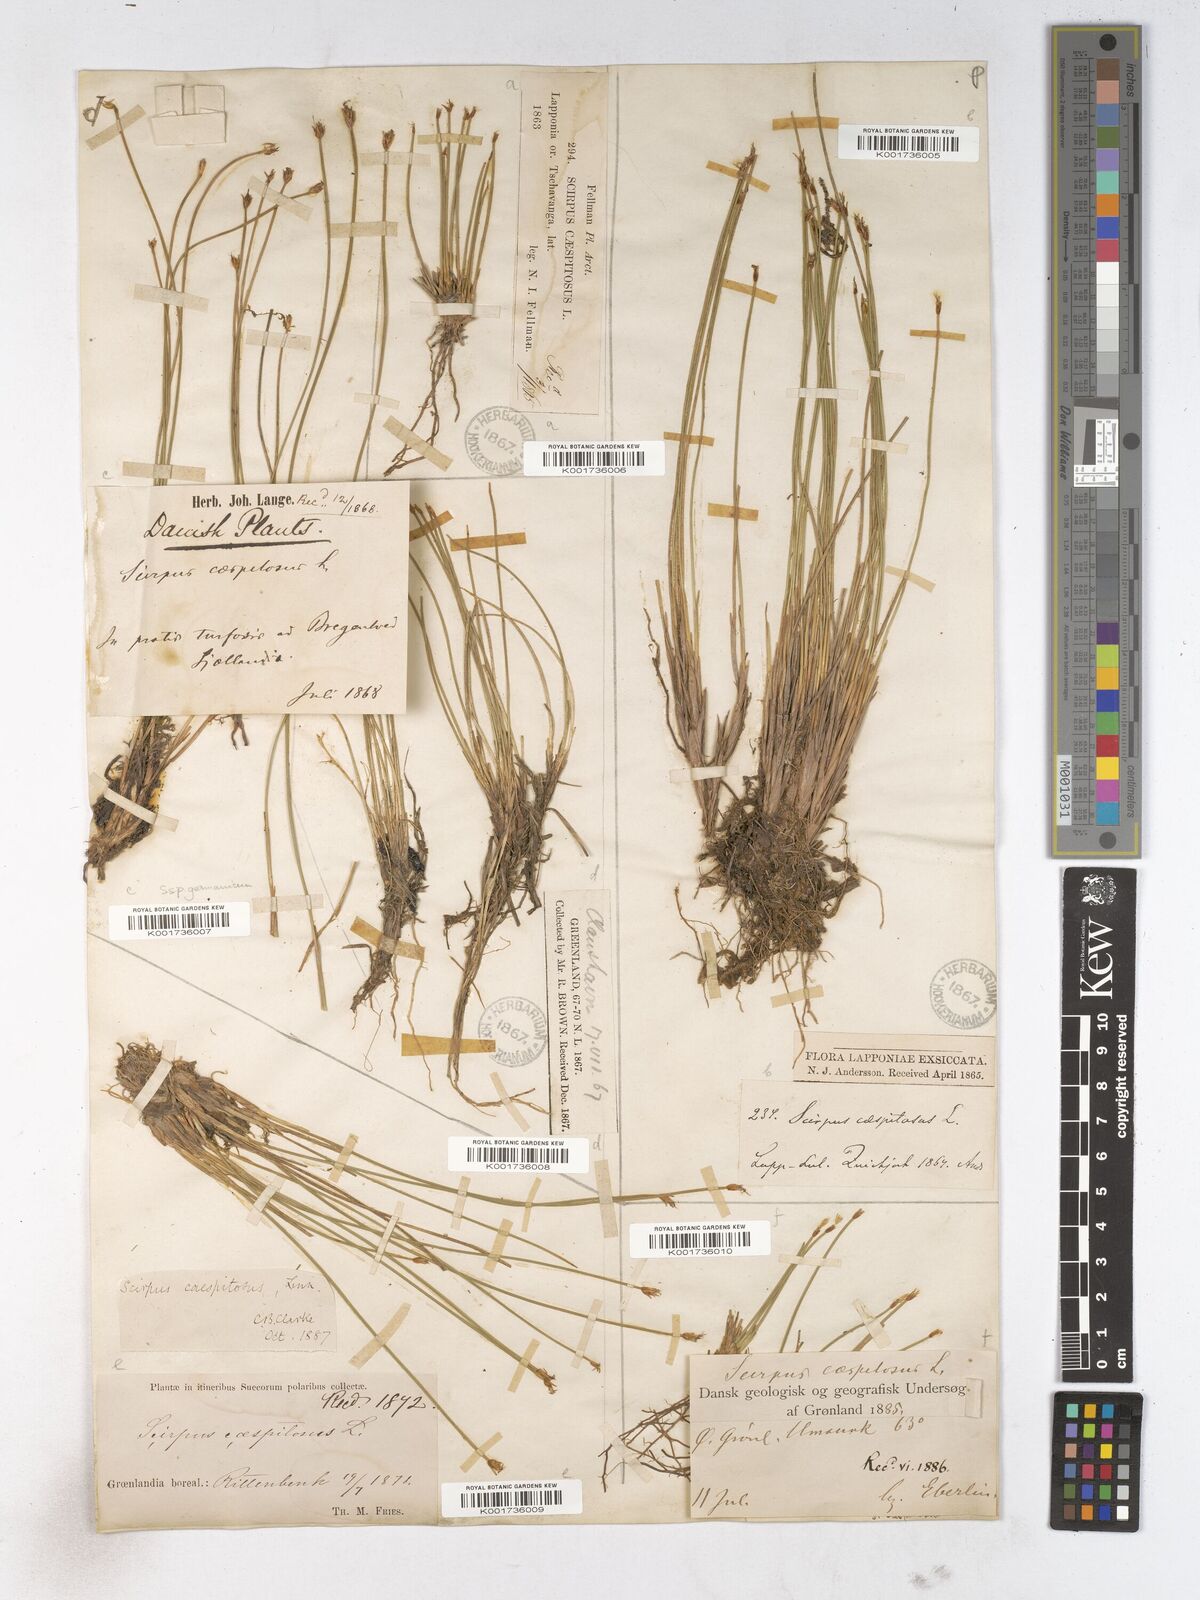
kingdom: Plantae
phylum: Tracheophyta
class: Liliopsida
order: Poales
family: Cyperaceae
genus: Trichophorum
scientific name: Trichophorum cespitosum
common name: Cespitose bulrush
